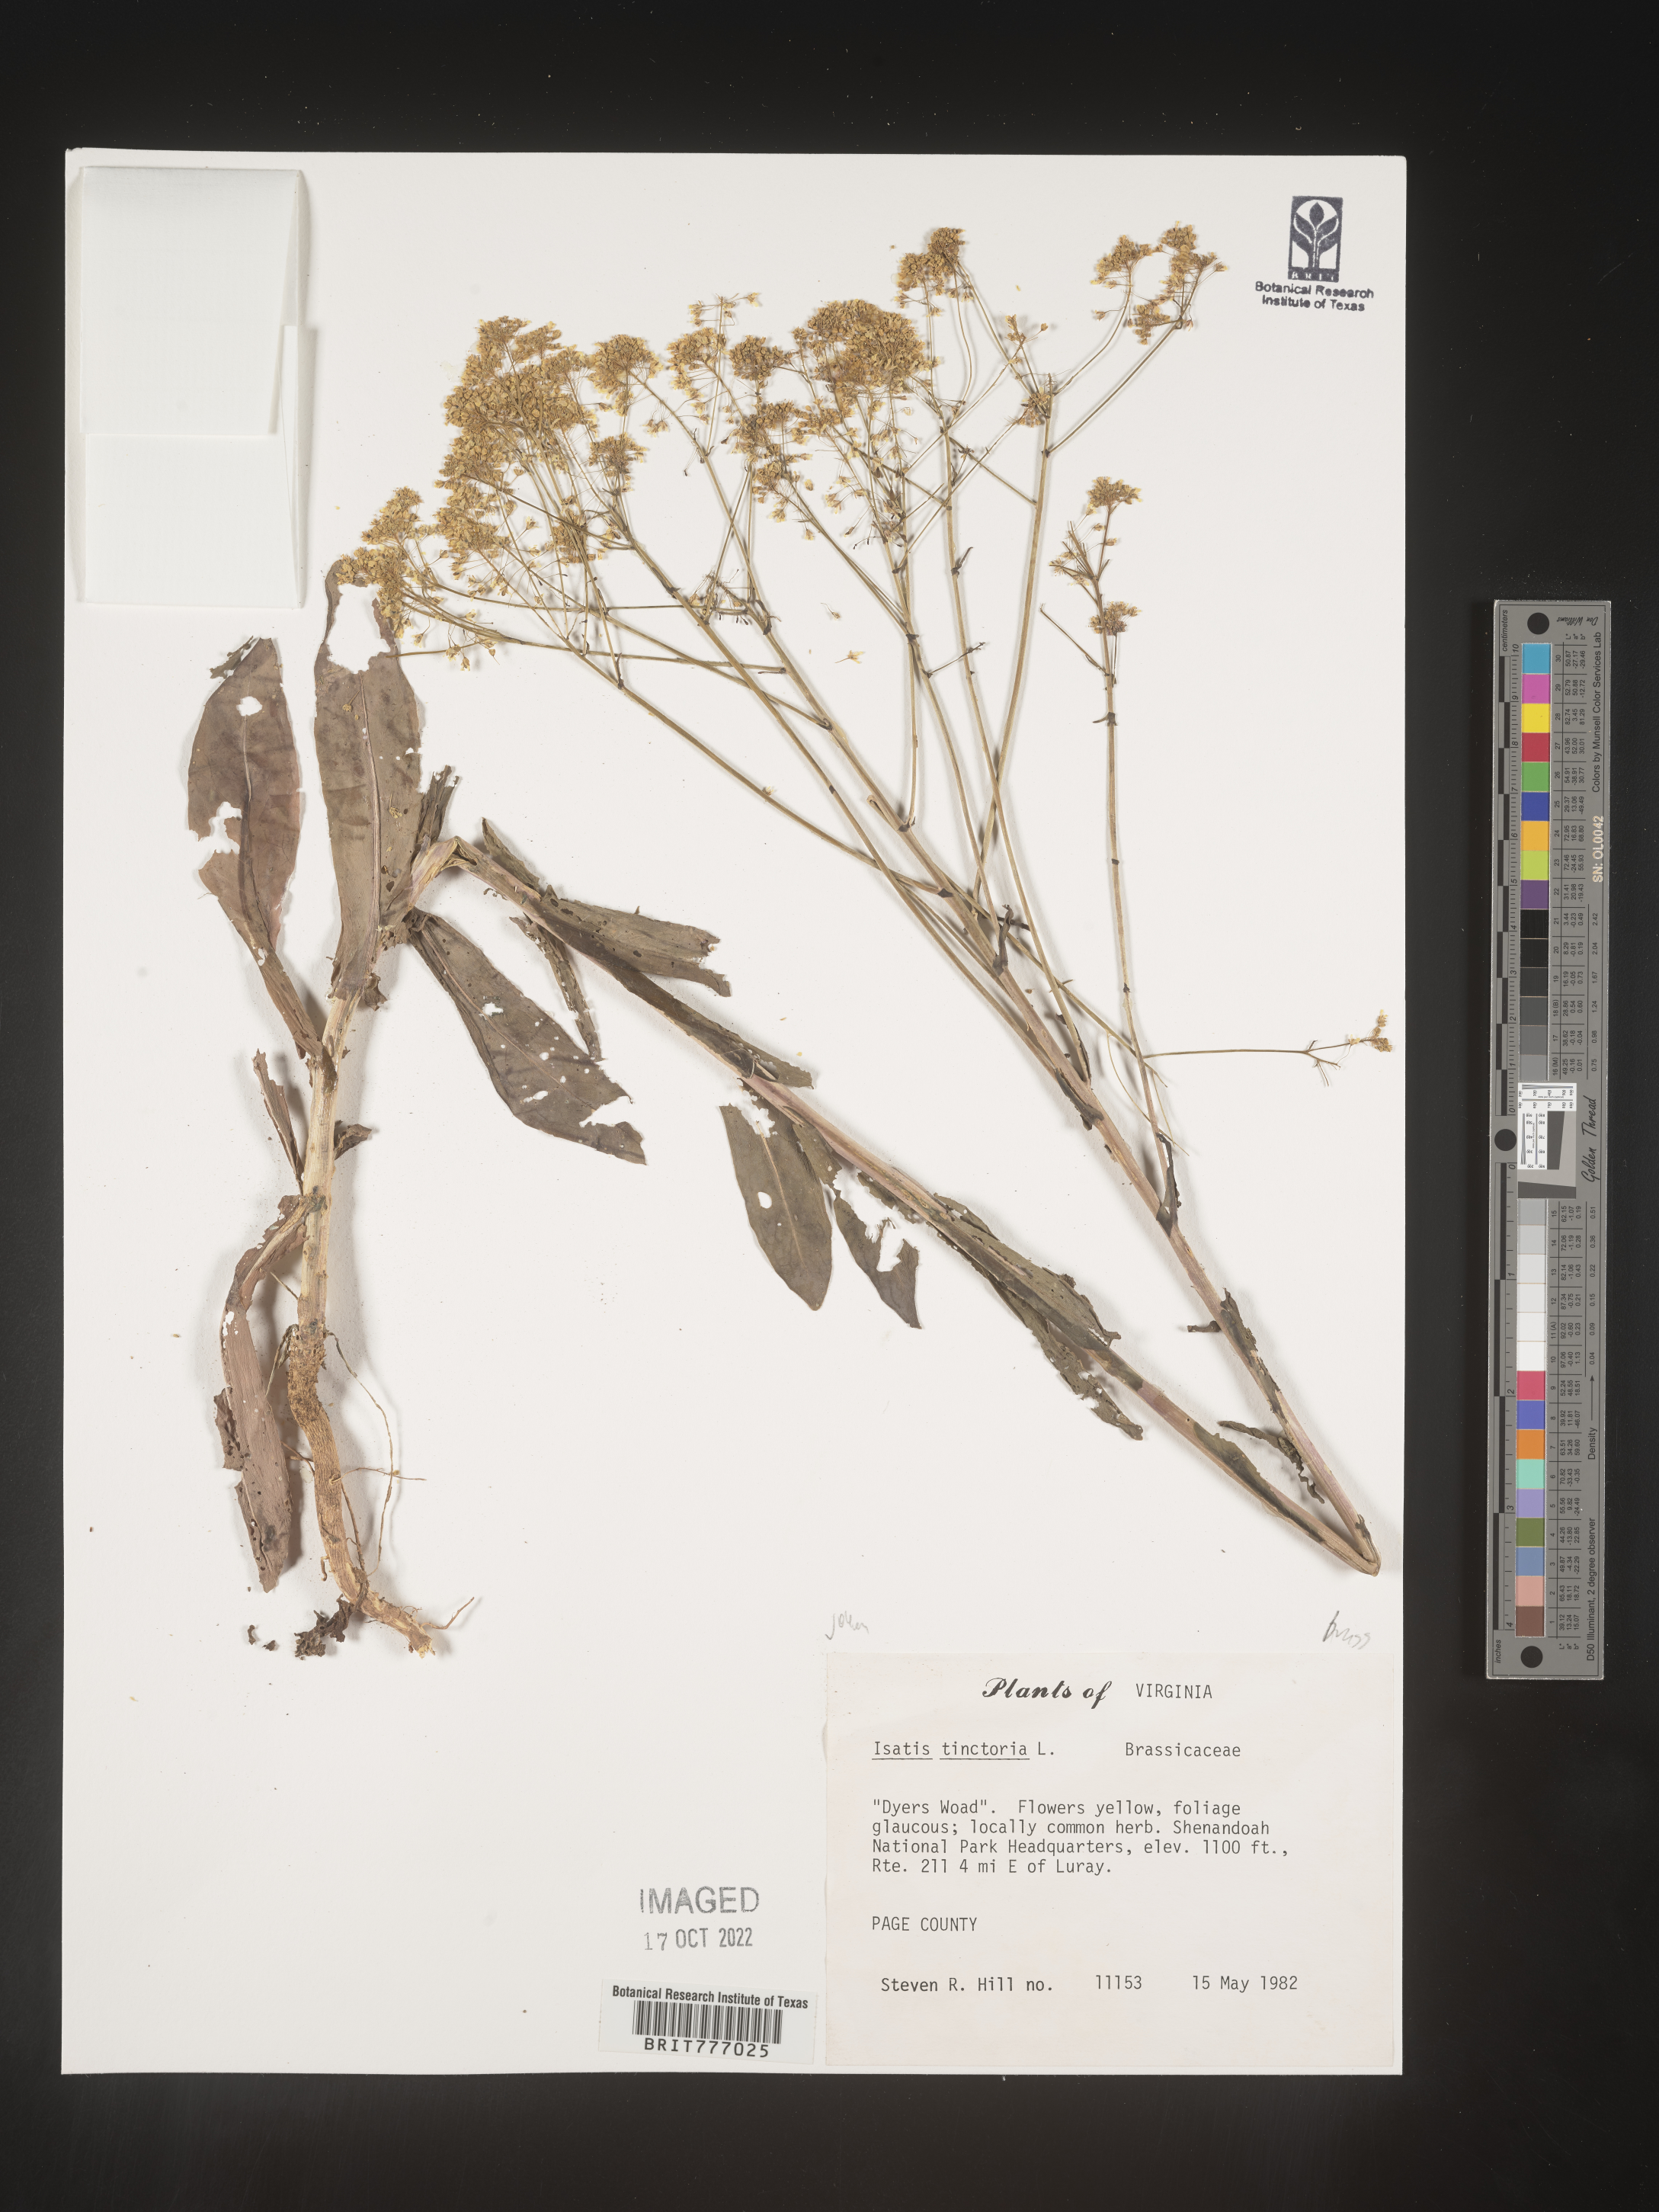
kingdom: Plantae
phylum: Tracheophyta
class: Magnoliopsida
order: Brassicales
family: Brassicaceae
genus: Isatis
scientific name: Isatis
